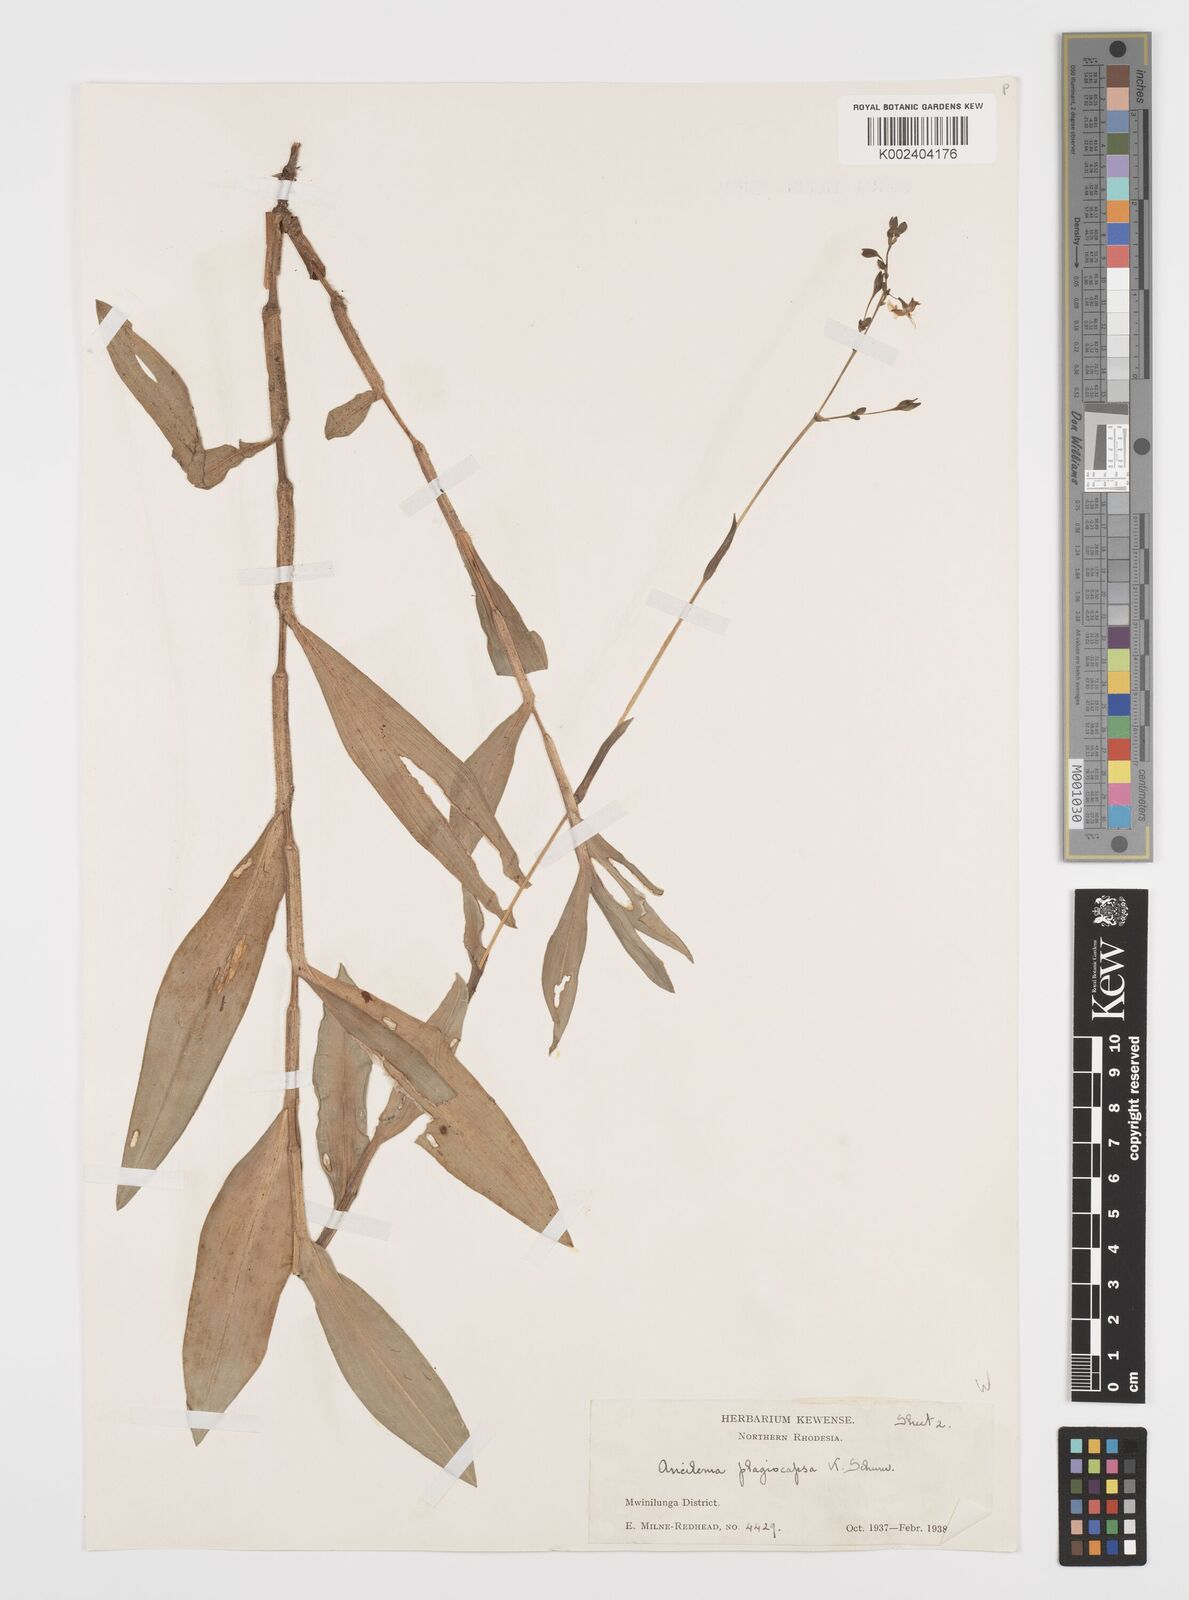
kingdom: Plantae
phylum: Tracheophyta
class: Liliopsida
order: Commelinales
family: Commelinaceae
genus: Aneilema
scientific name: Aneilema plagiocapsa
